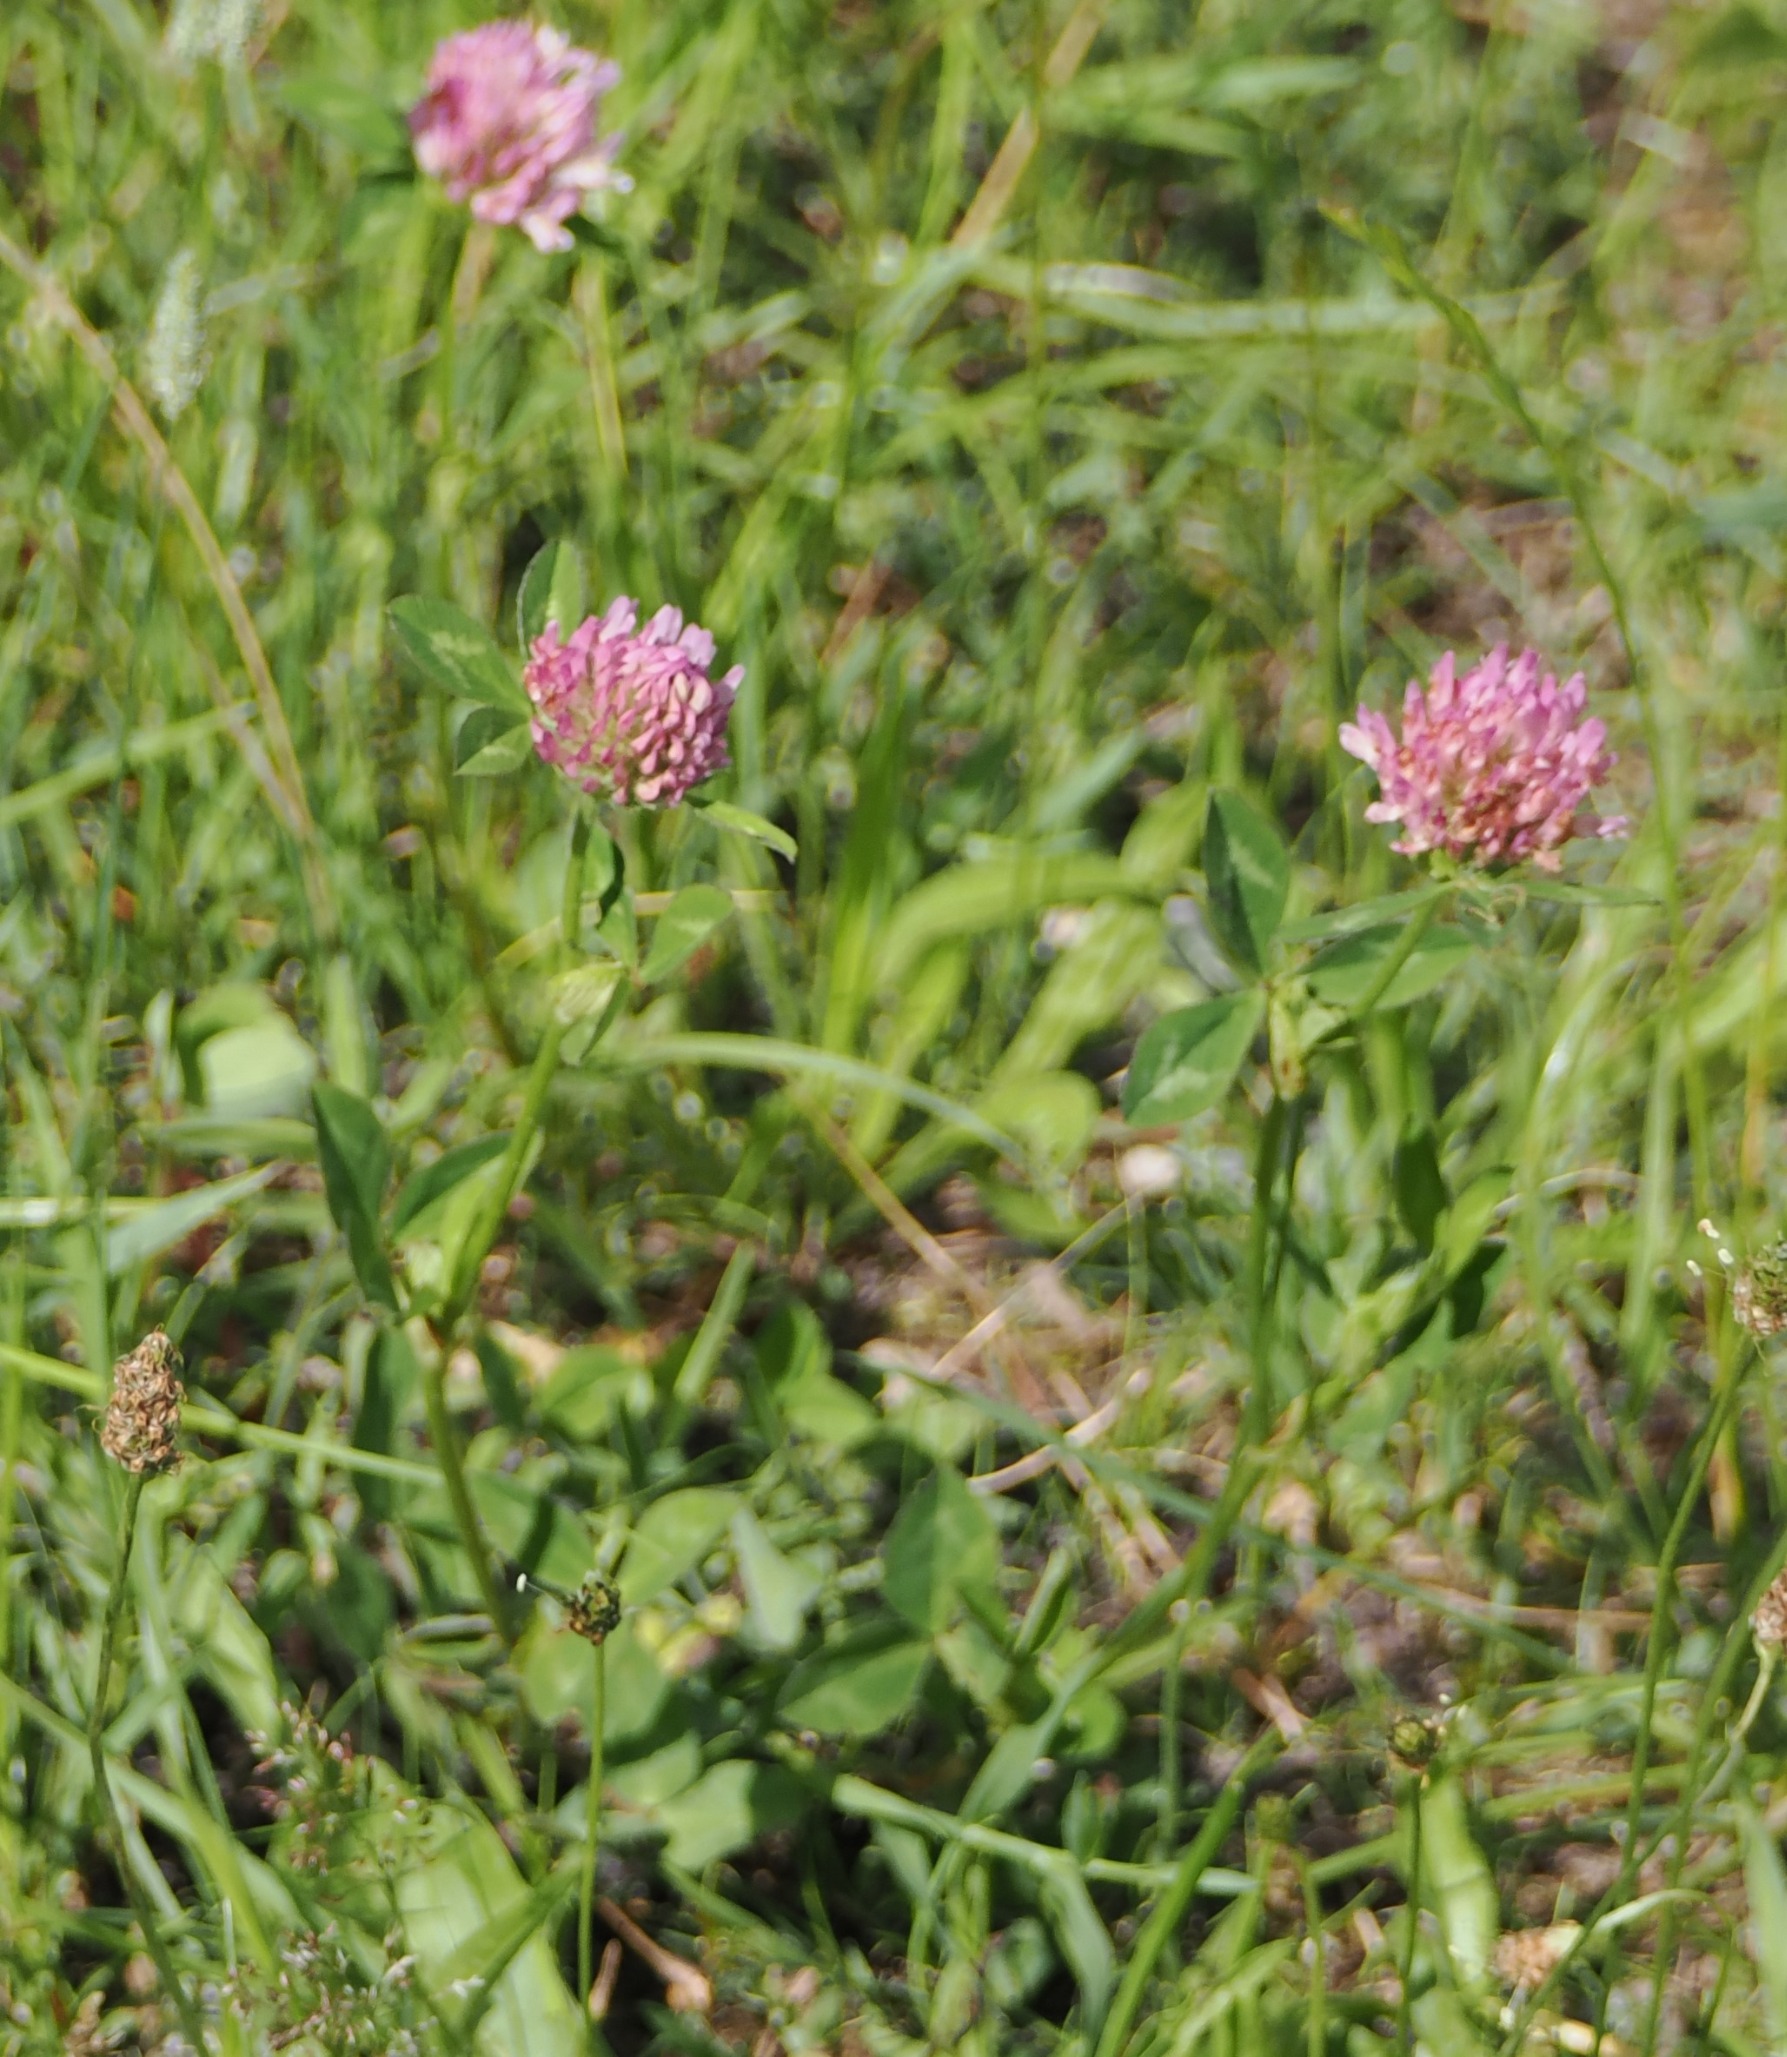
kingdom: Plantae
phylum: Tracheophyta
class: Magnoliopsida
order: Fabales
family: Fabaceae
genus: Trifolium
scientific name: Trifolium pratense
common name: Rød-kløver
